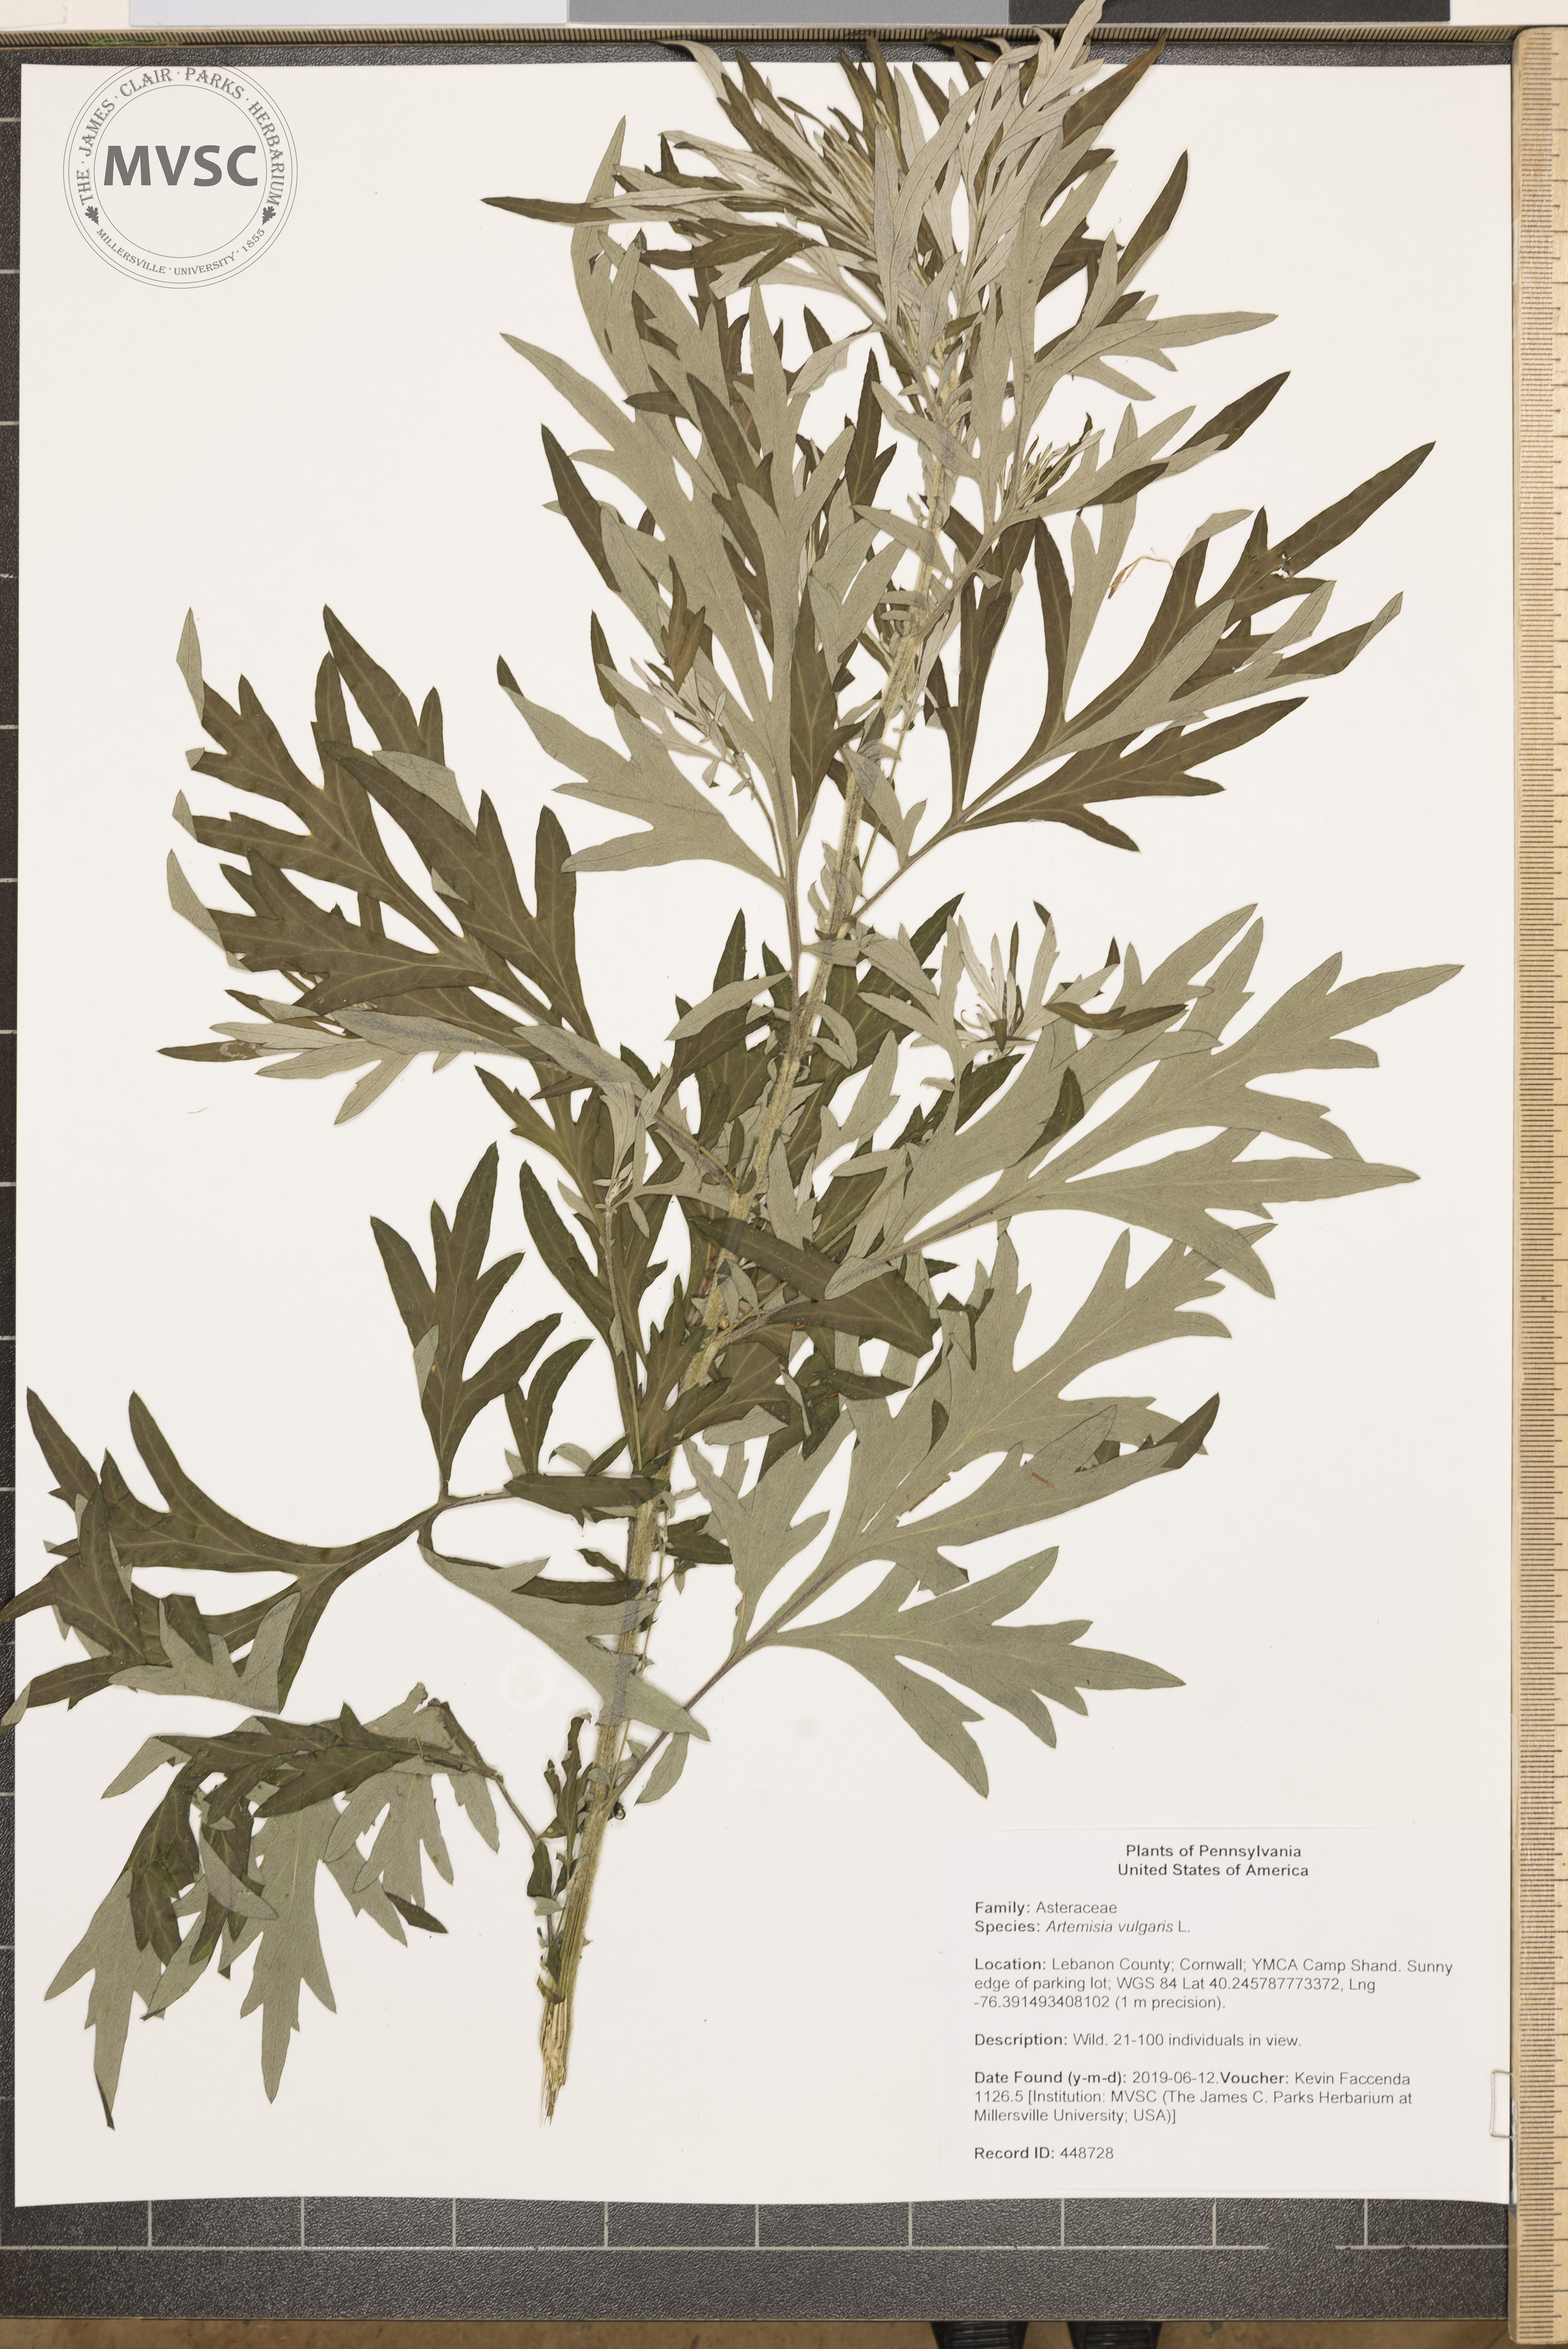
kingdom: Plantae
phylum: Tracheophyta
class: Magnoliopsida
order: Asterales
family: Asteraceae
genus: Artemisia
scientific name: Artemisia vulgaris
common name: Mugwort
